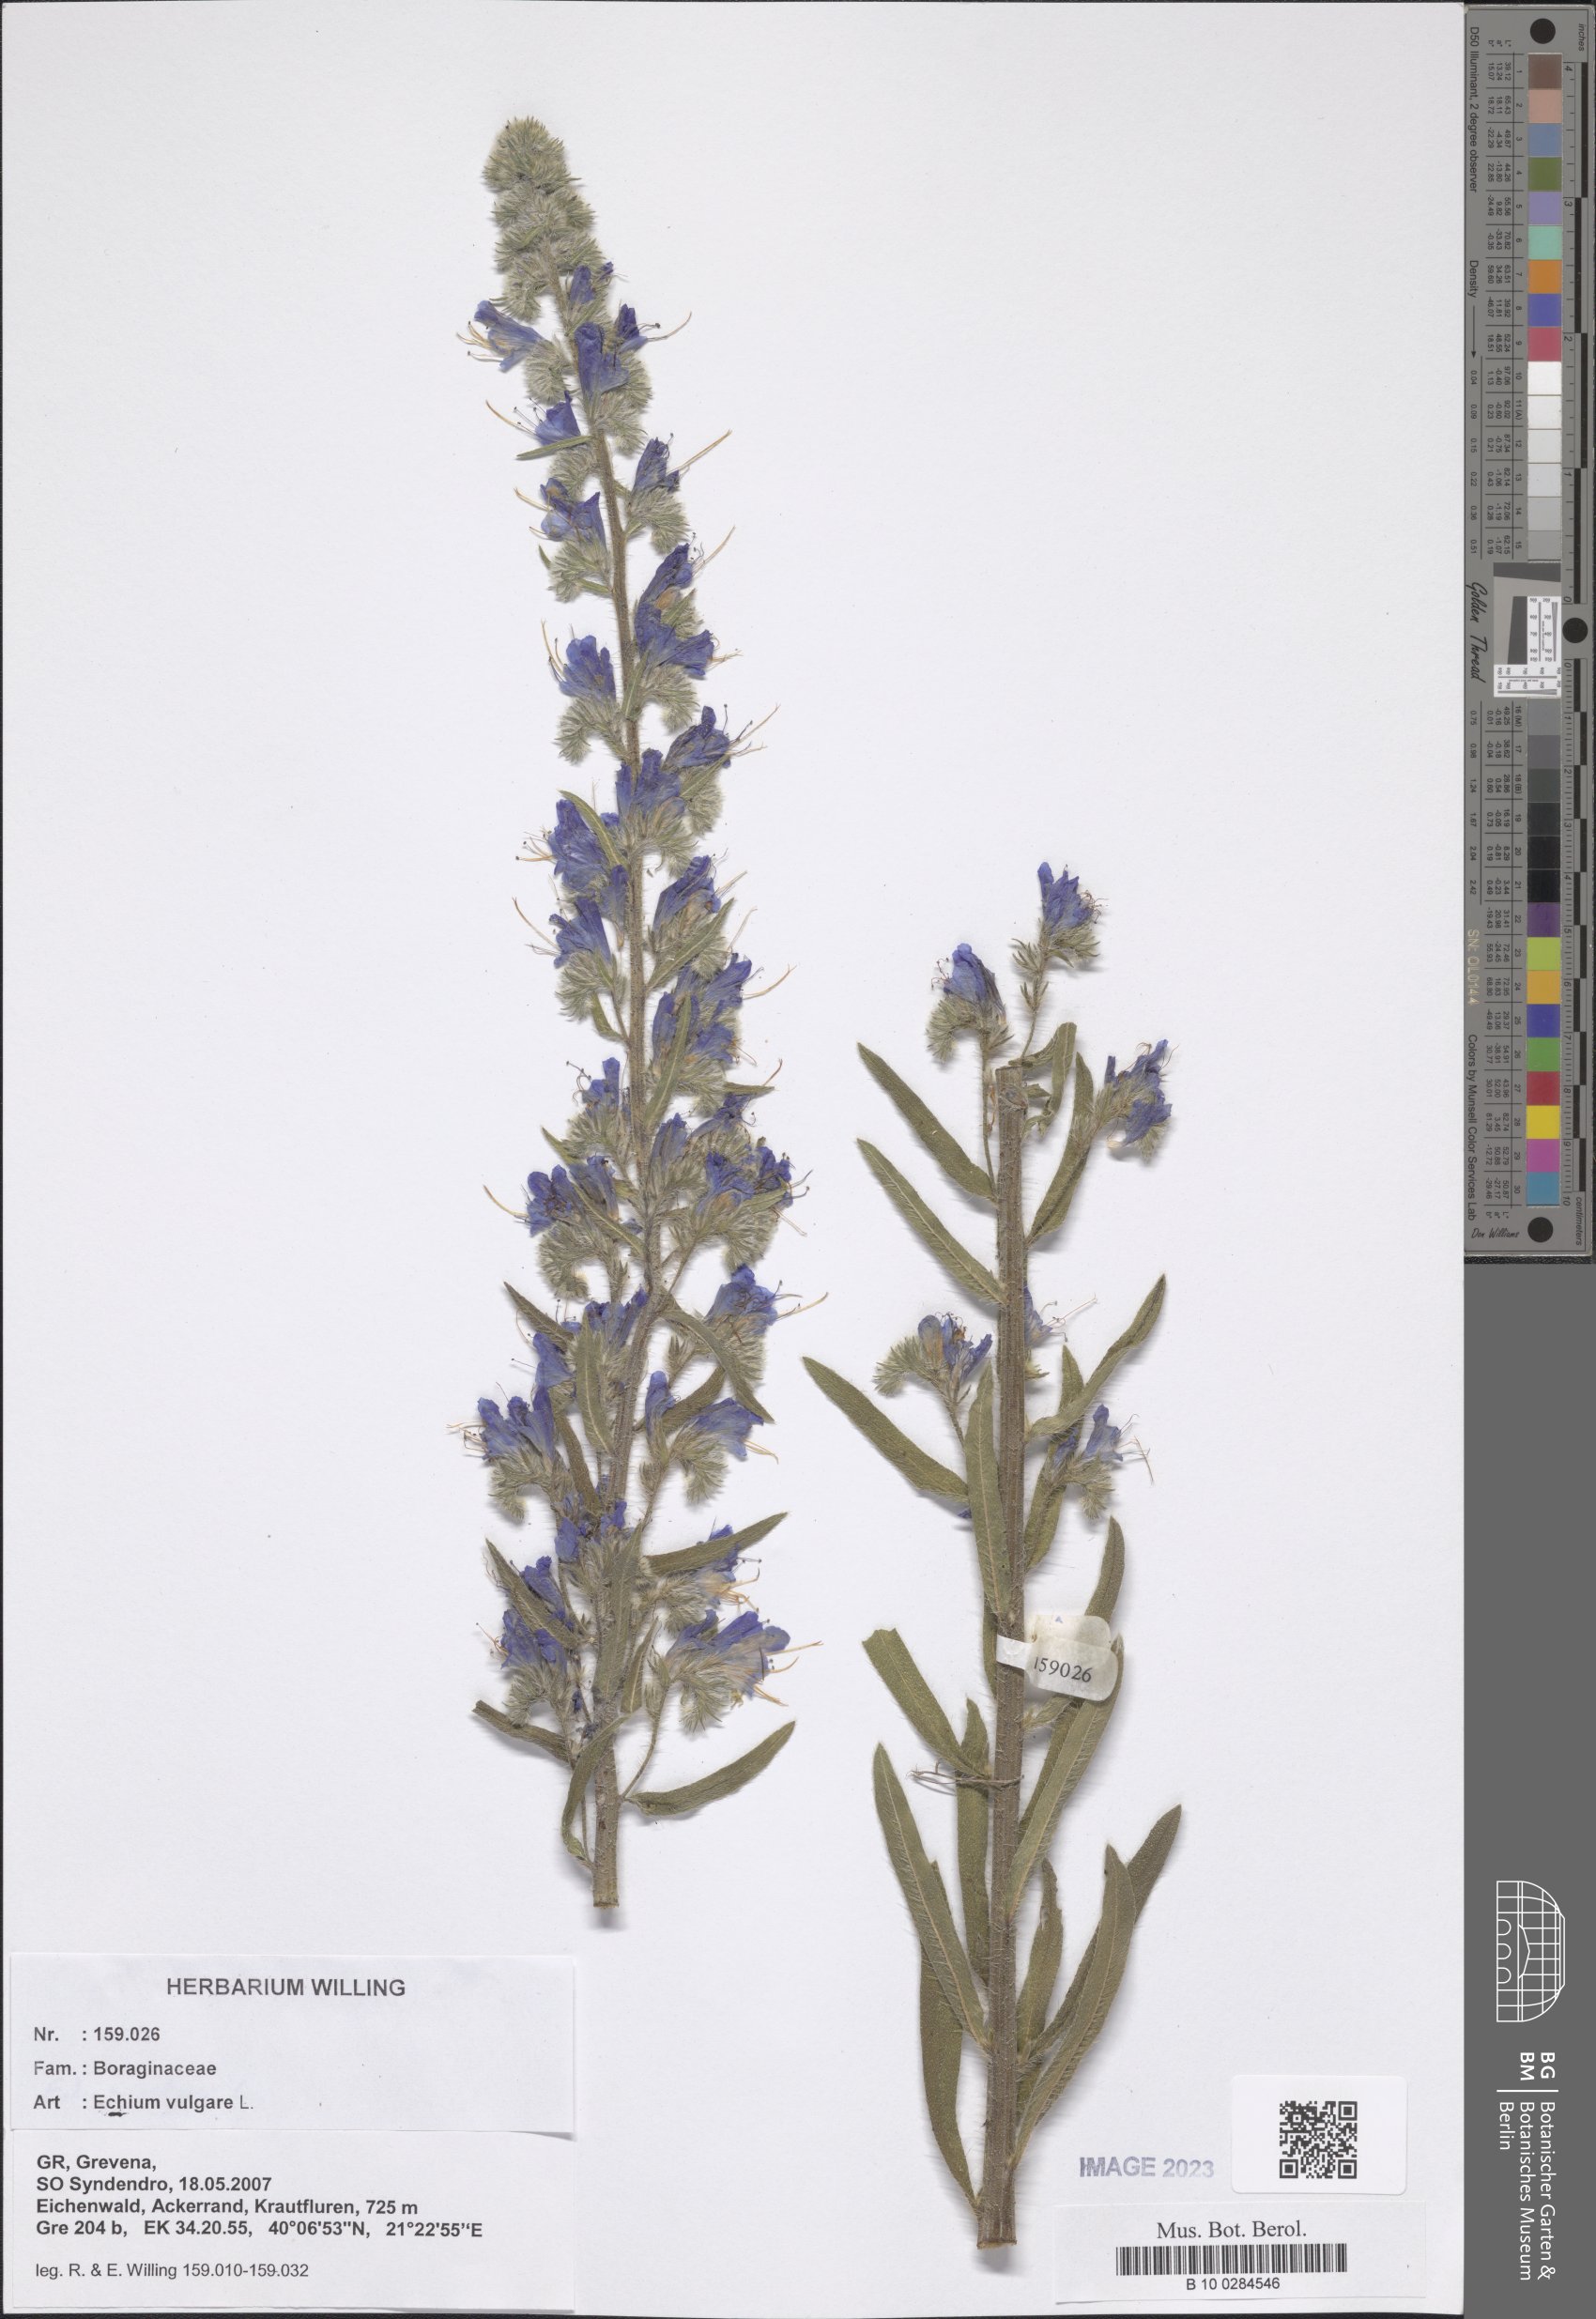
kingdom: Plantae
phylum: Tracheophyta
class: Magnoliopsida
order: Boraginales
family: Boraginaceae
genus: Echium
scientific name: Echium vulgare
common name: Common viper's bugloss
